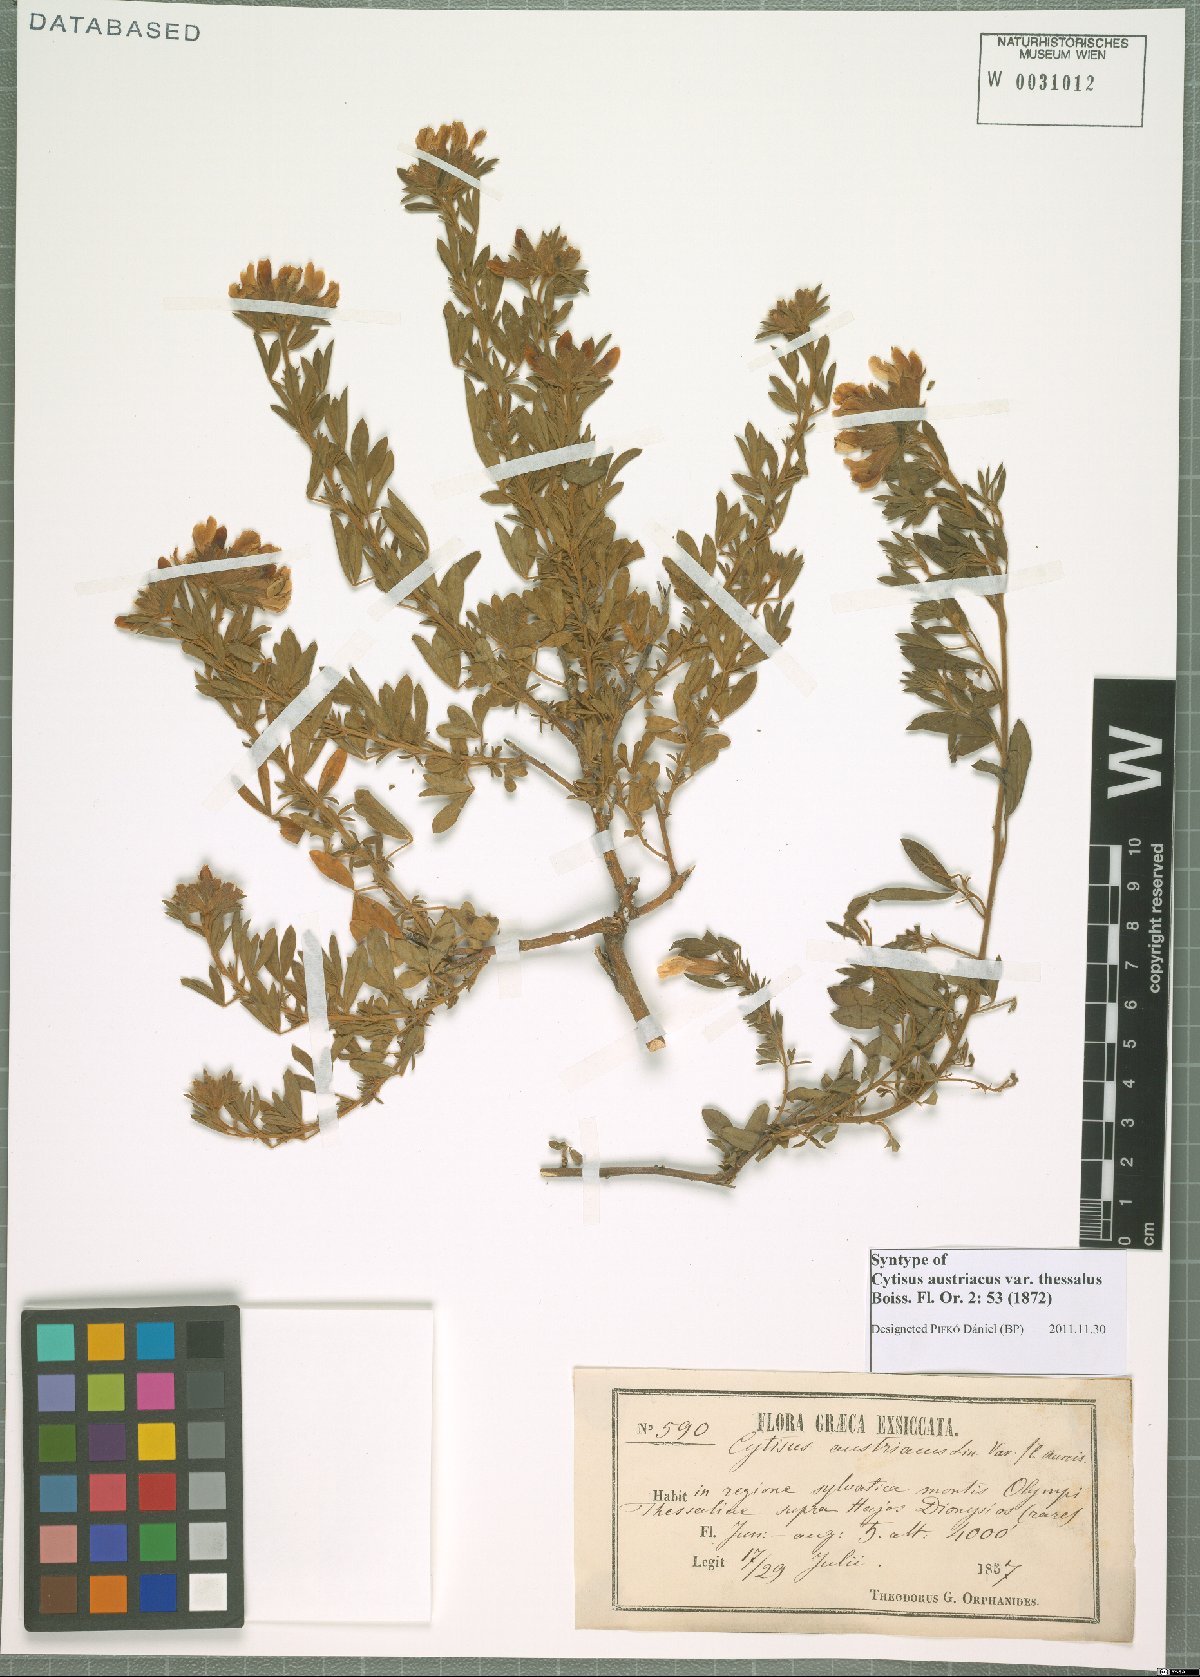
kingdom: Plantae
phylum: Tracheophyta
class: Magnoliopsida
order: Fabales
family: Fabaceae
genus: Chamaecytisus
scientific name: Chamaecytisus austriacus
